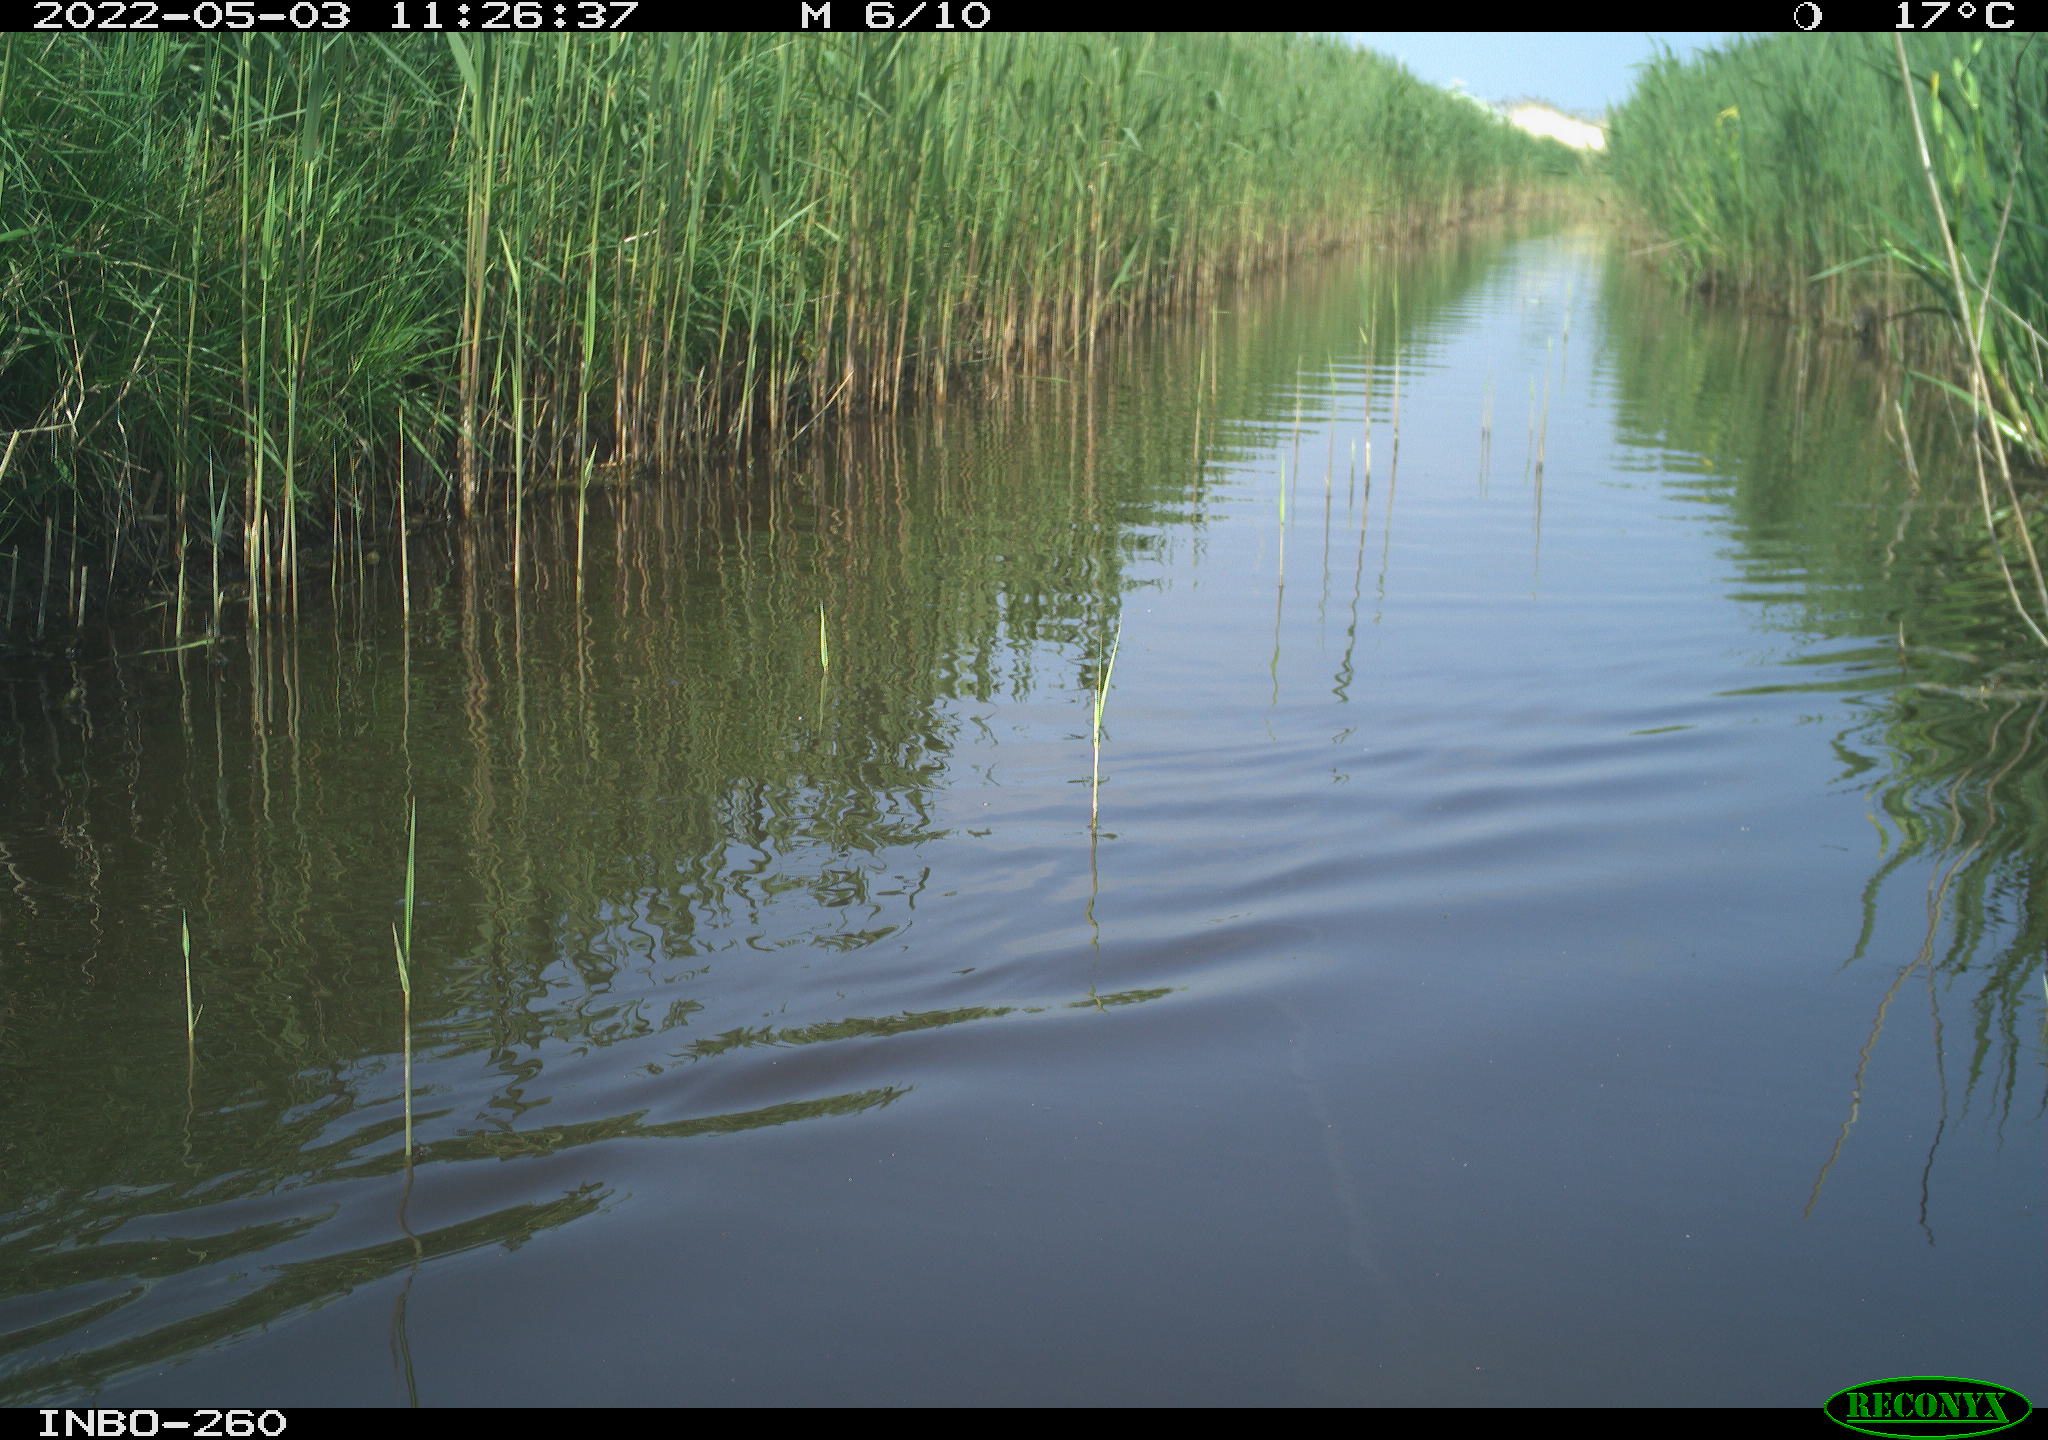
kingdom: Animalia
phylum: Chordata
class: Aves
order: Gruiformes
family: Rallidae
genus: Fulica
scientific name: Fulica atra
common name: Eurasian coot
